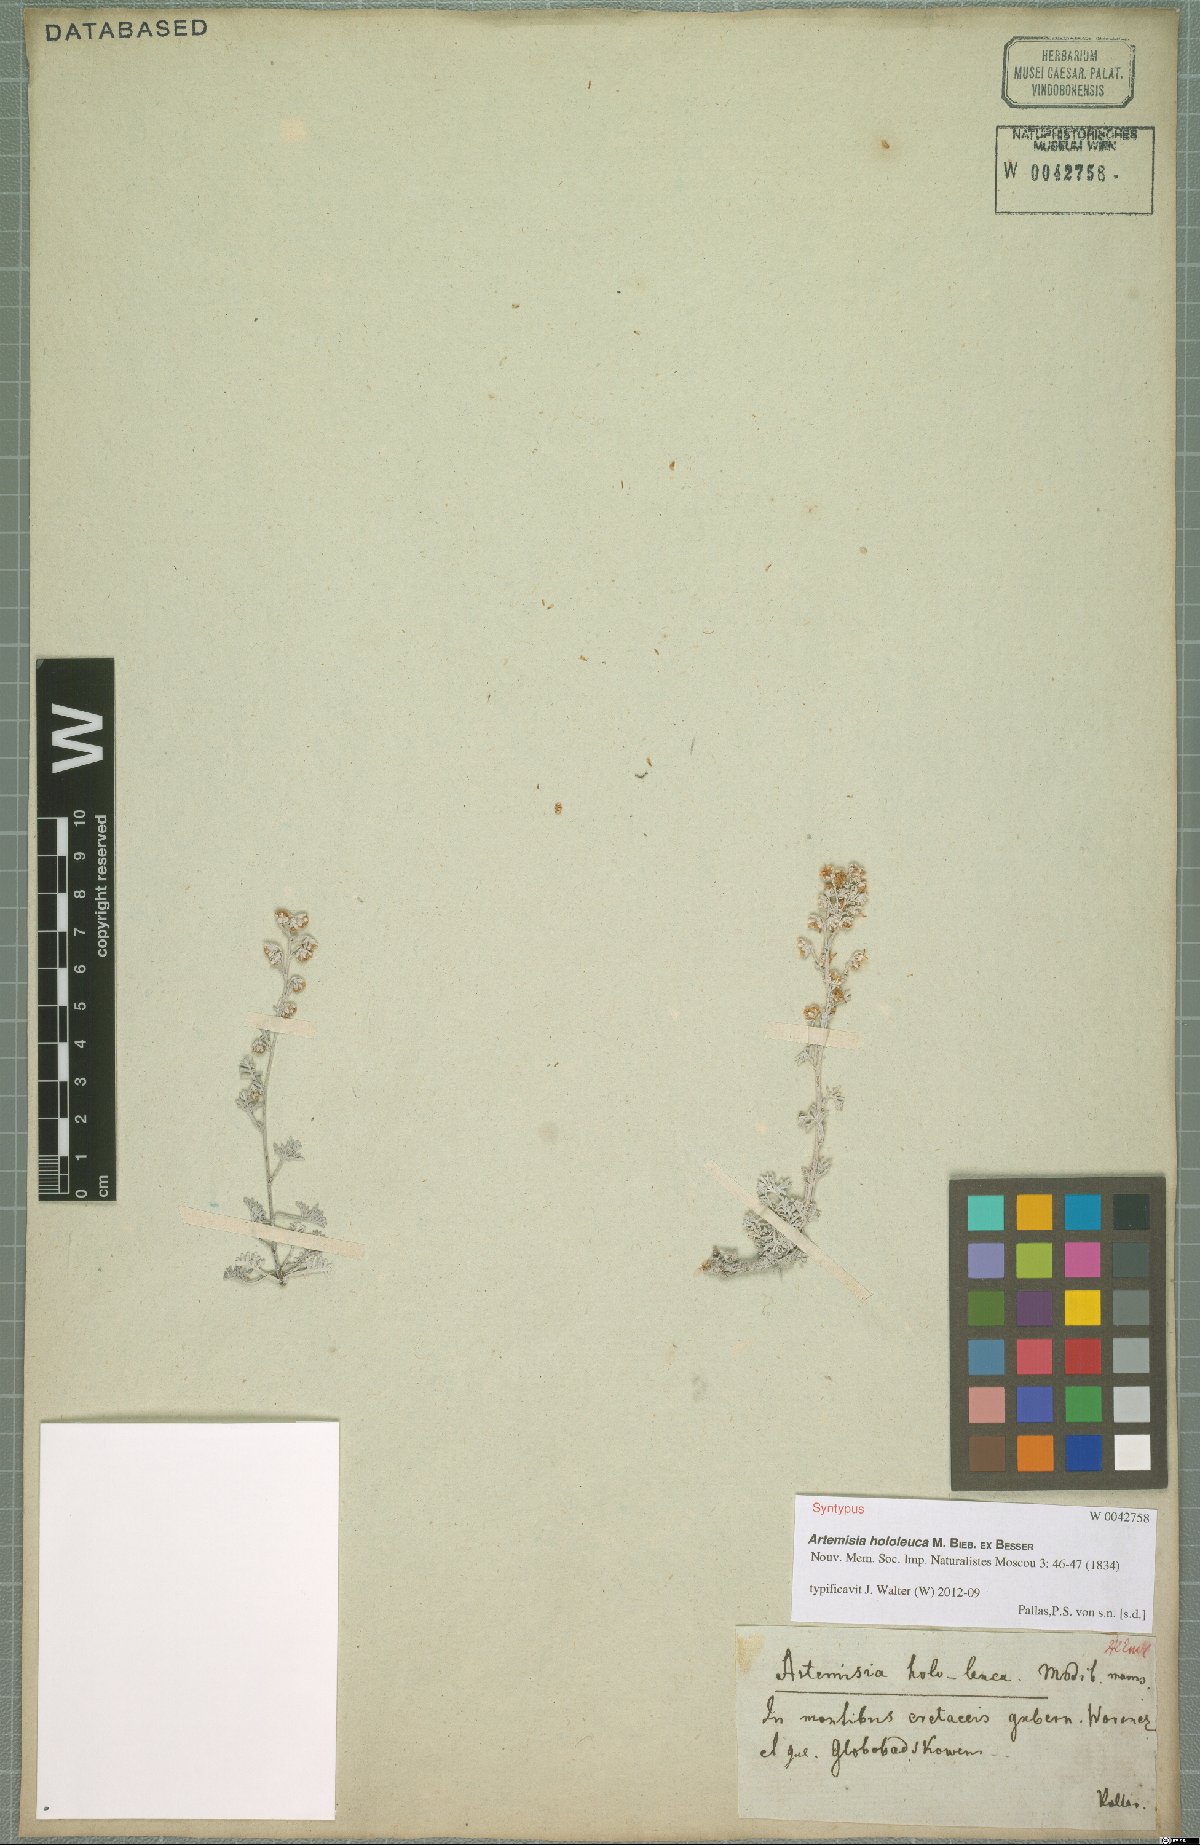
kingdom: Plantae
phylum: Tracheophyta
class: Magnoliopsida
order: Asterales
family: Asteraceae
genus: Artemisia
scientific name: Artemisia hololeuca
